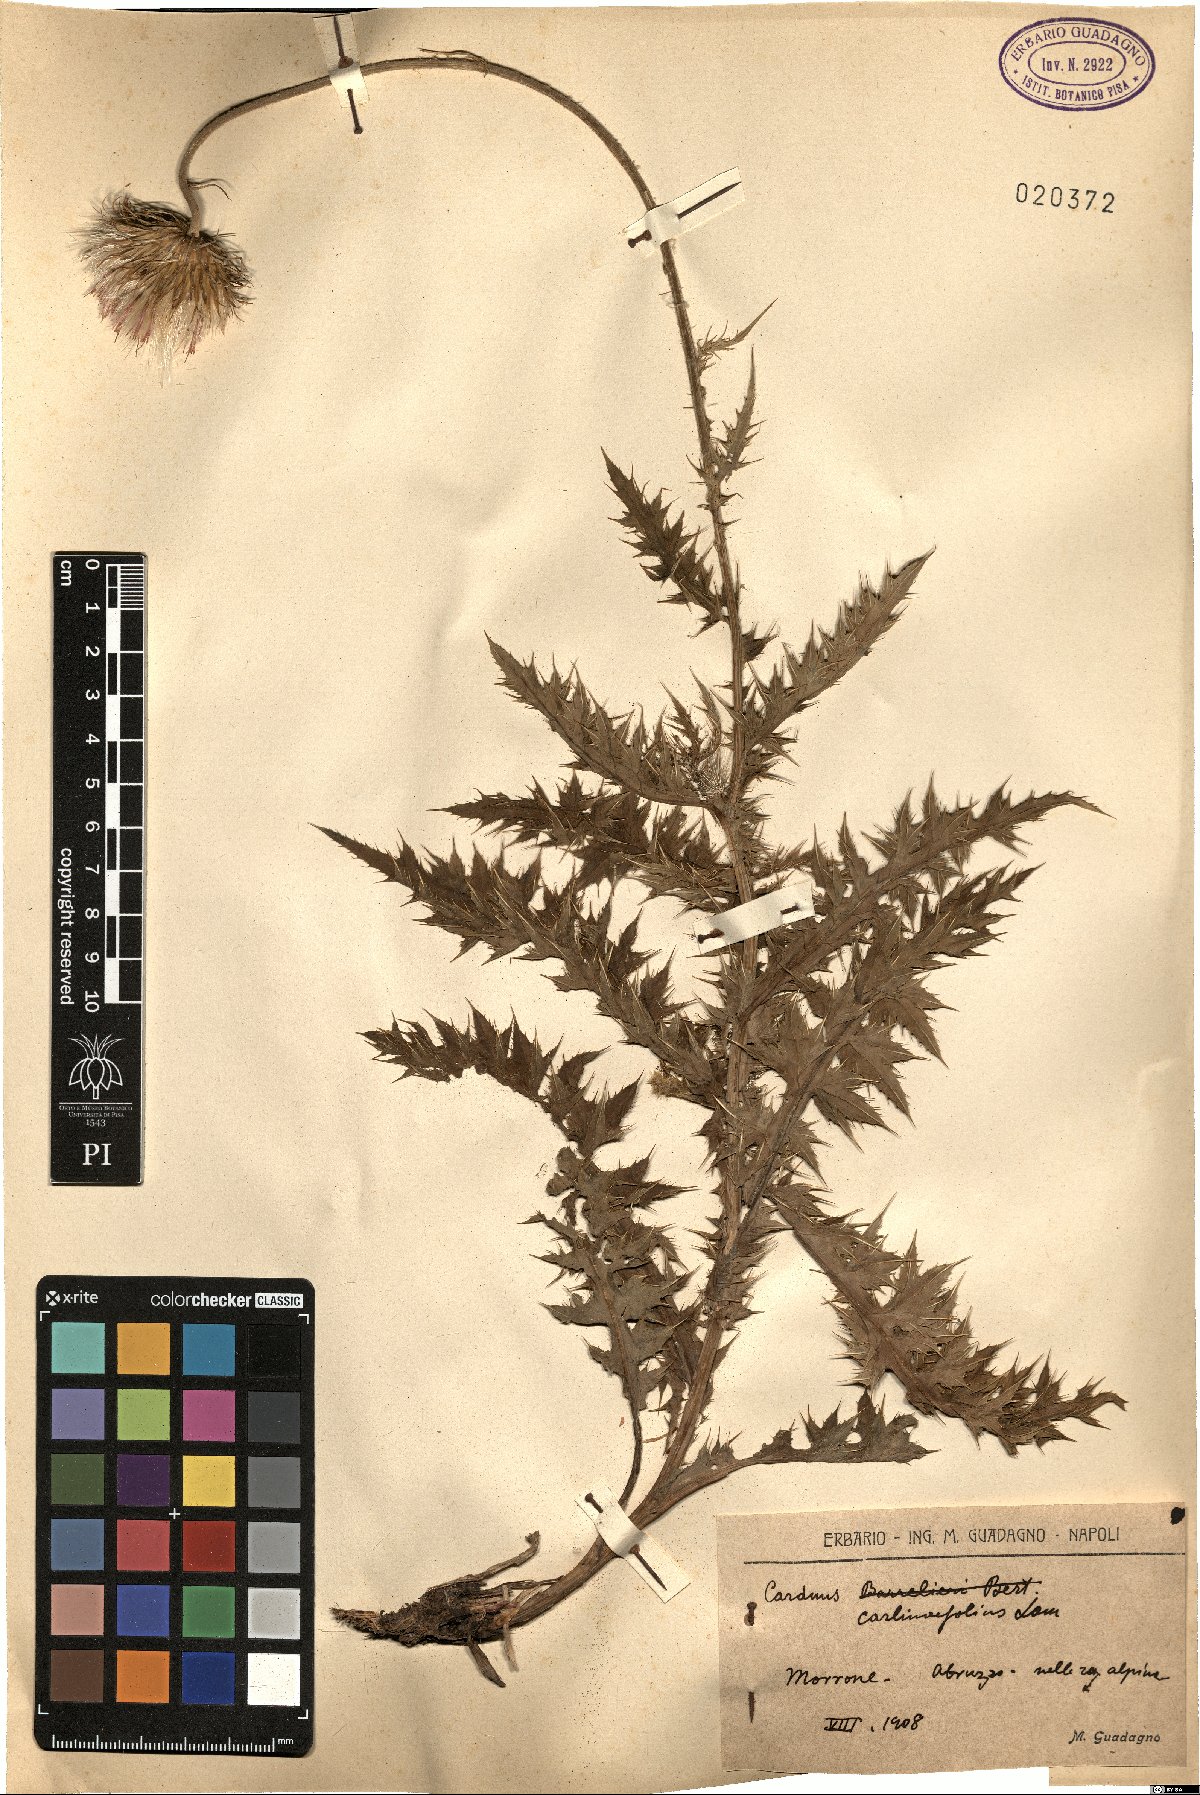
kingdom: Plantae
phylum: Tracheophyta
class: Magnoliopsida
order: Asterales
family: Asteraceae
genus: Carduus
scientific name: Carduus carlinifolius
